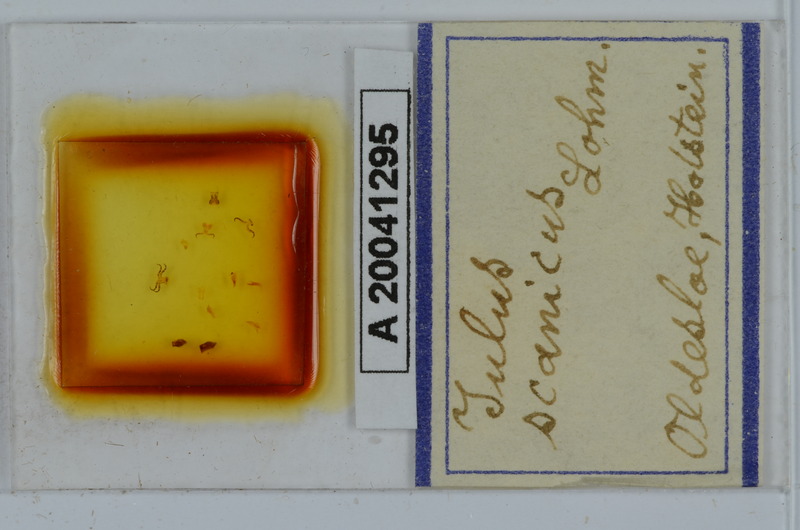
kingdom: Animalia
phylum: Arthropoda
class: Diplopoda
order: Julida
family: Julidae
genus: Julus
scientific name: Julus scanicus
